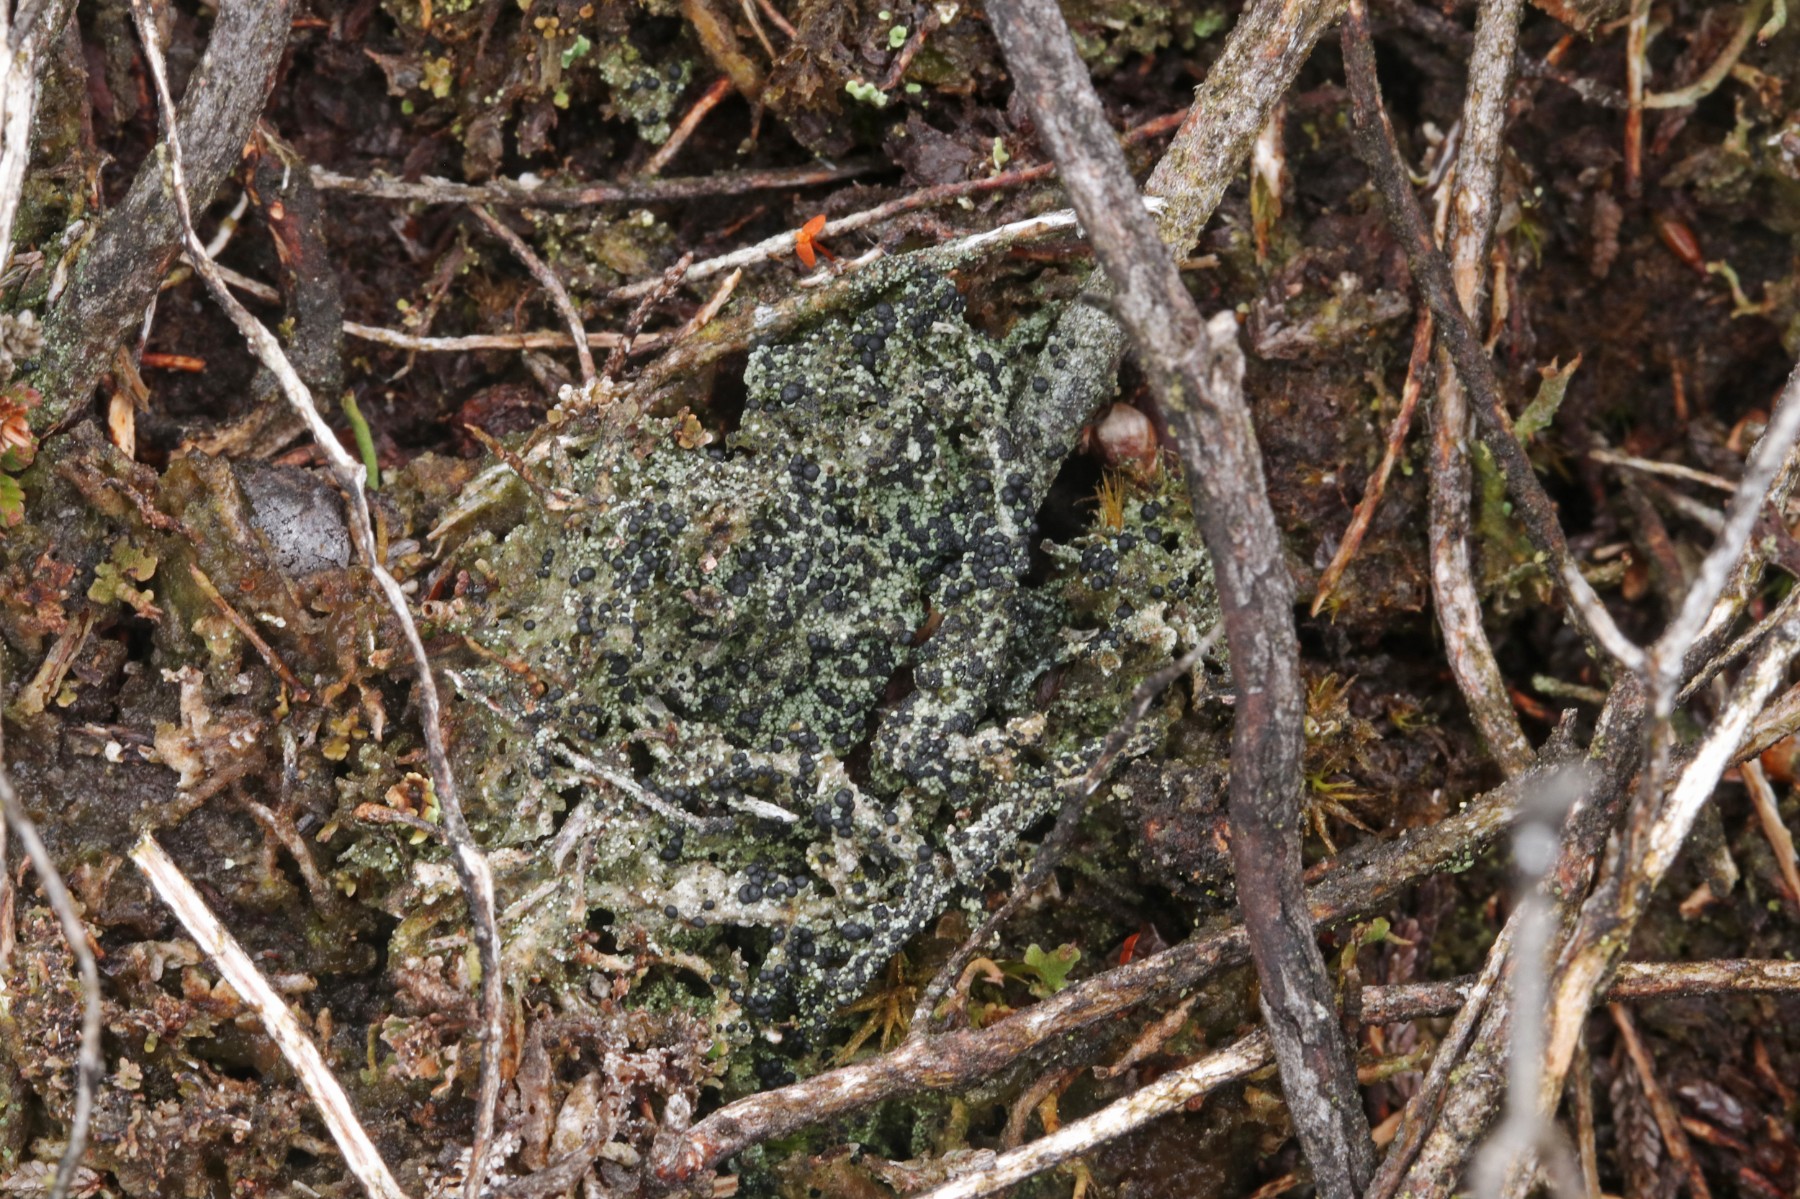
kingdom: Fungi
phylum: Ascomycota
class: Lecanoromycetes
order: Lecanorales
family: Byssolomataceae
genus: Micarea
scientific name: Micarea lignaria
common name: tørve-knaplav
